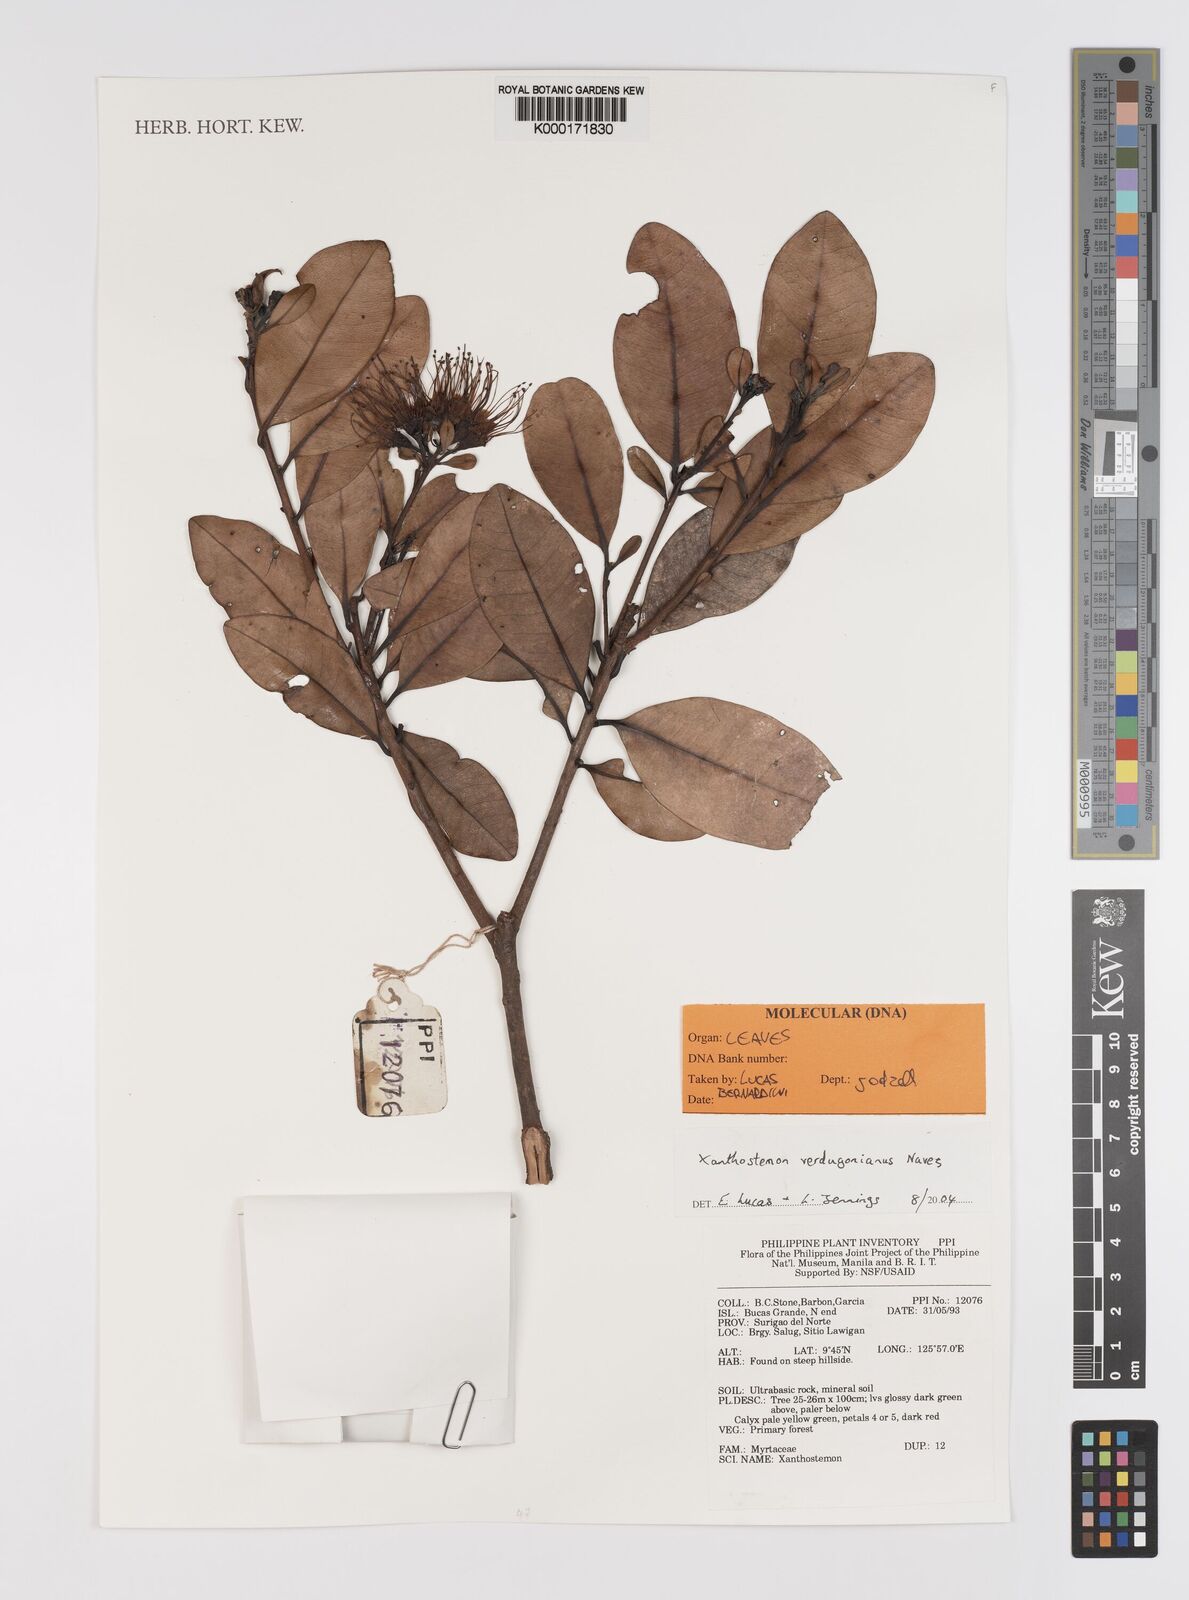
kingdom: Plantae
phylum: Tracheophyta
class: Magnoliopsida
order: Myrtales
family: Myrtaceae
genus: Xanthostemon
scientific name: Xanthostemon
